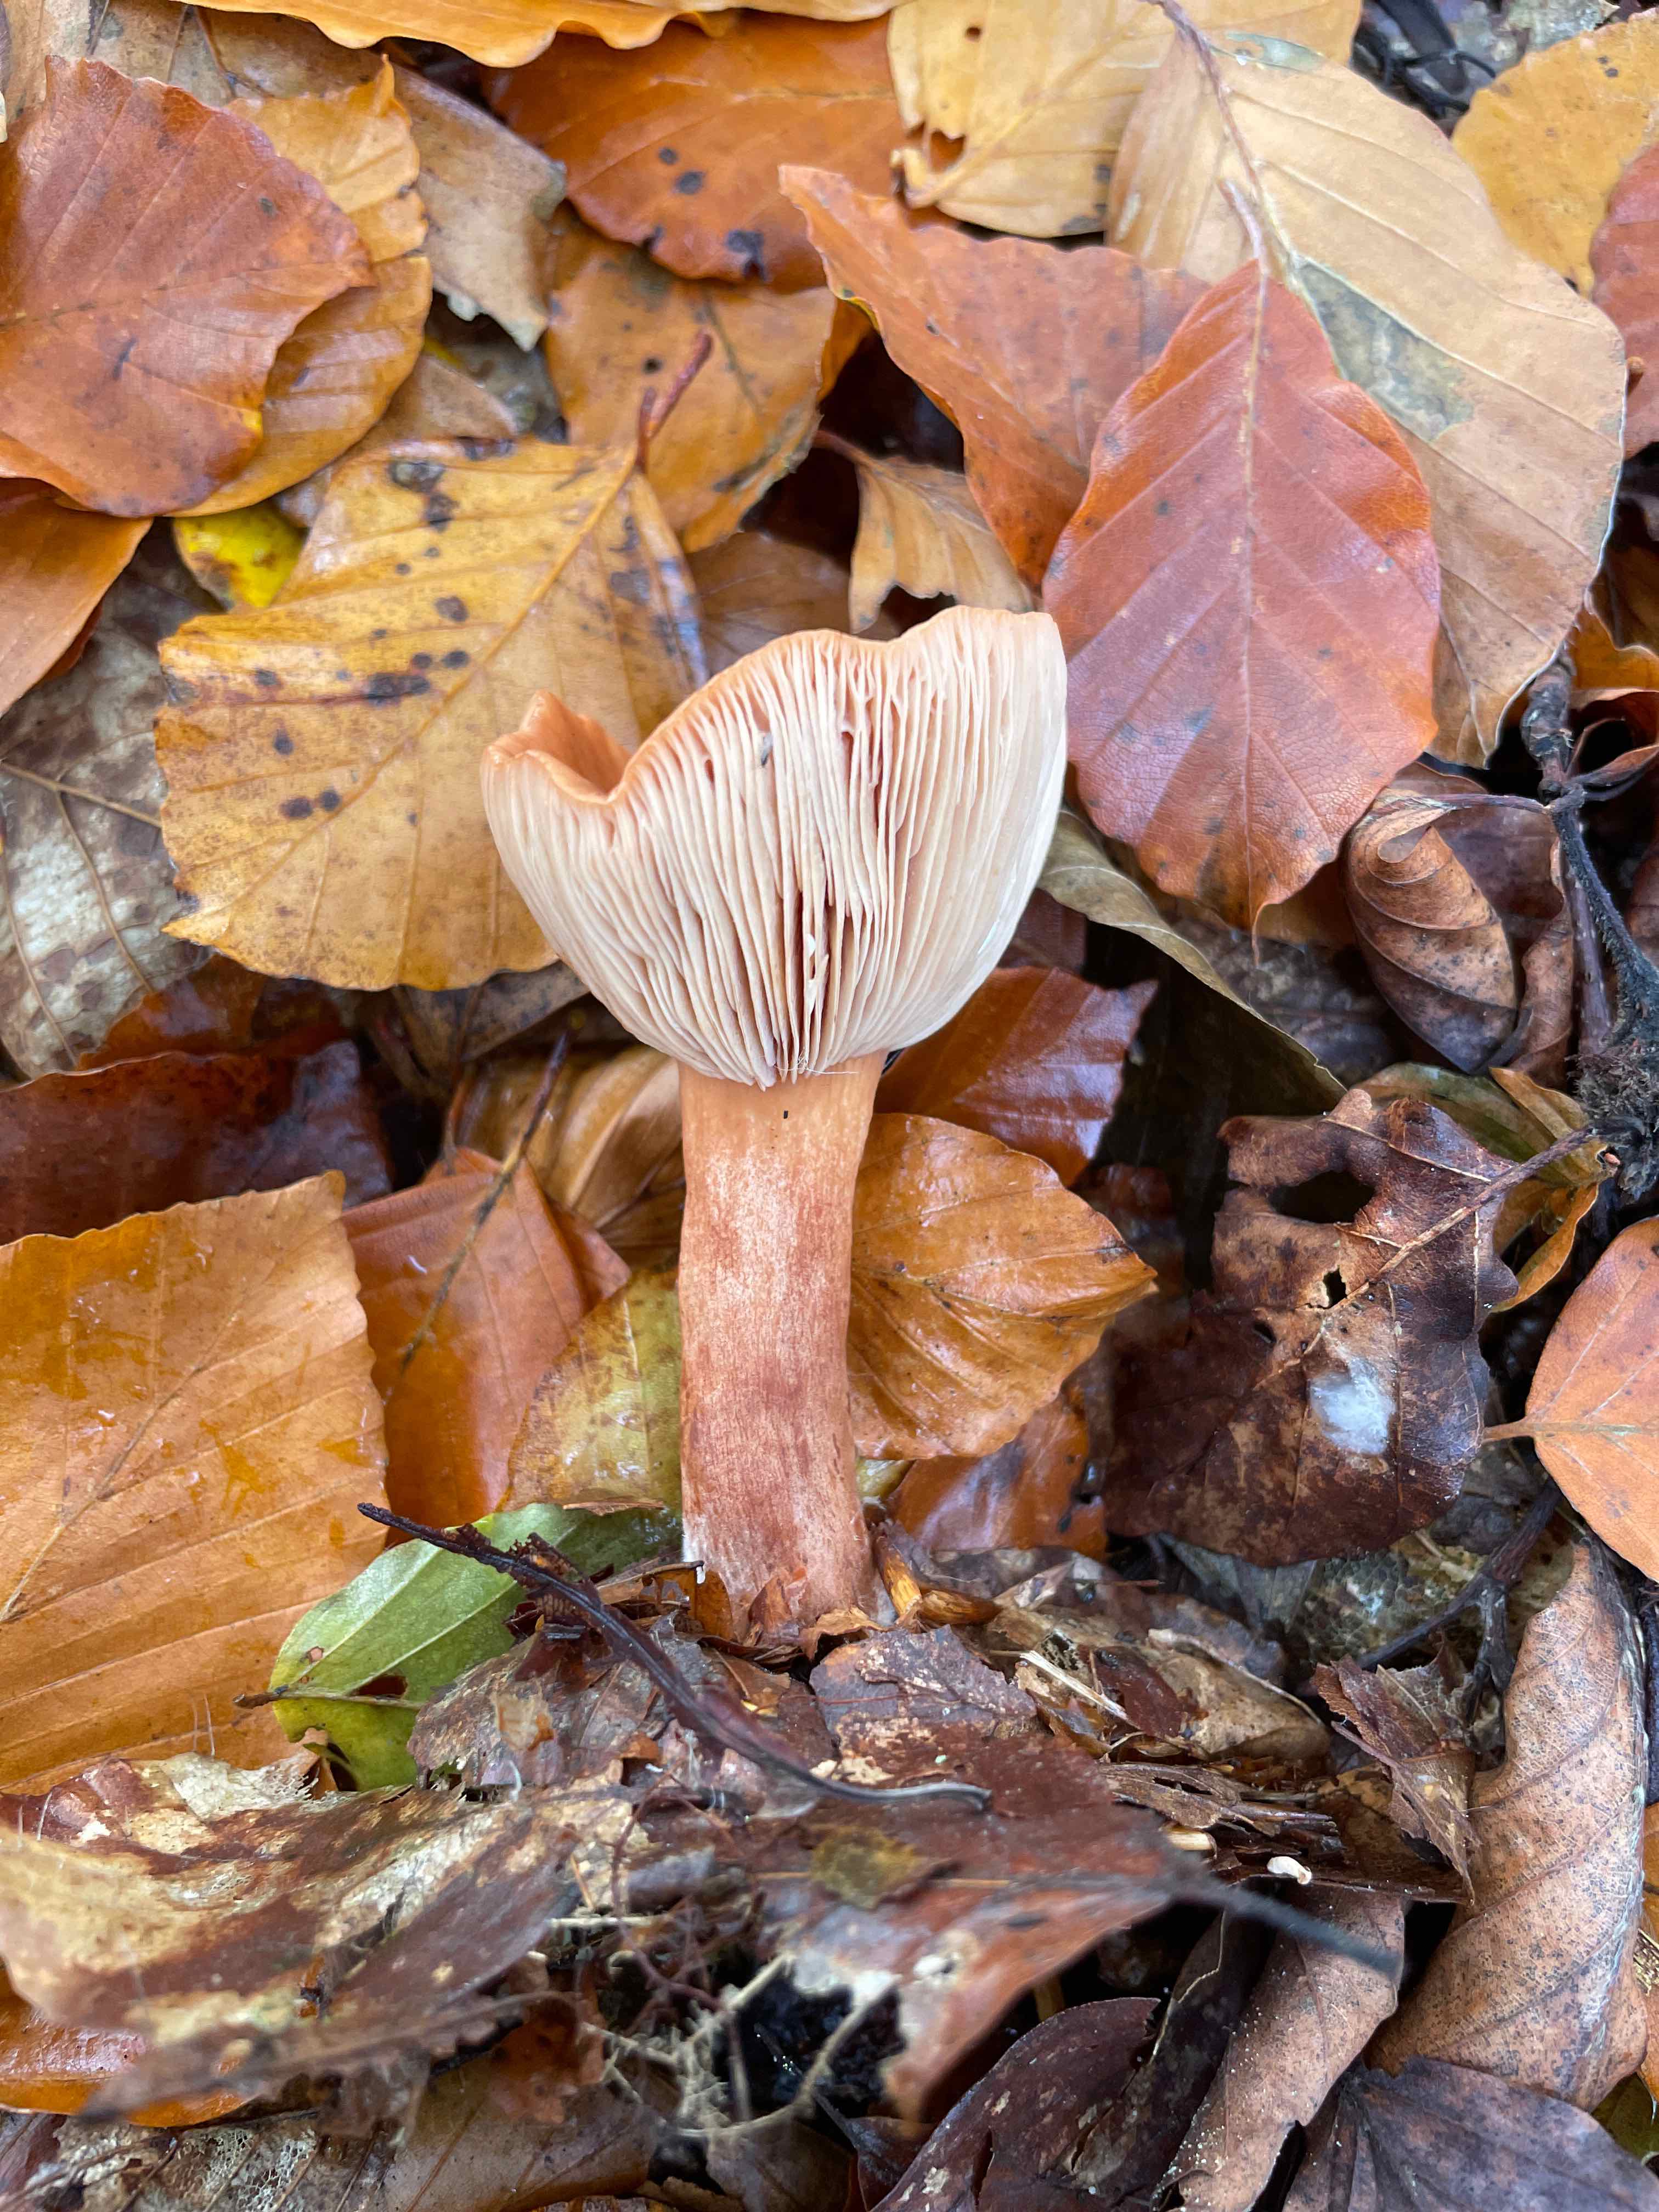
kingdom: Fungi
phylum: Basidiomycota
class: Agaricomycetes
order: Russulales
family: Russulaceae
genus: Lactarius
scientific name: Lactarius subdulcis
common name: sødlig mælkehat
